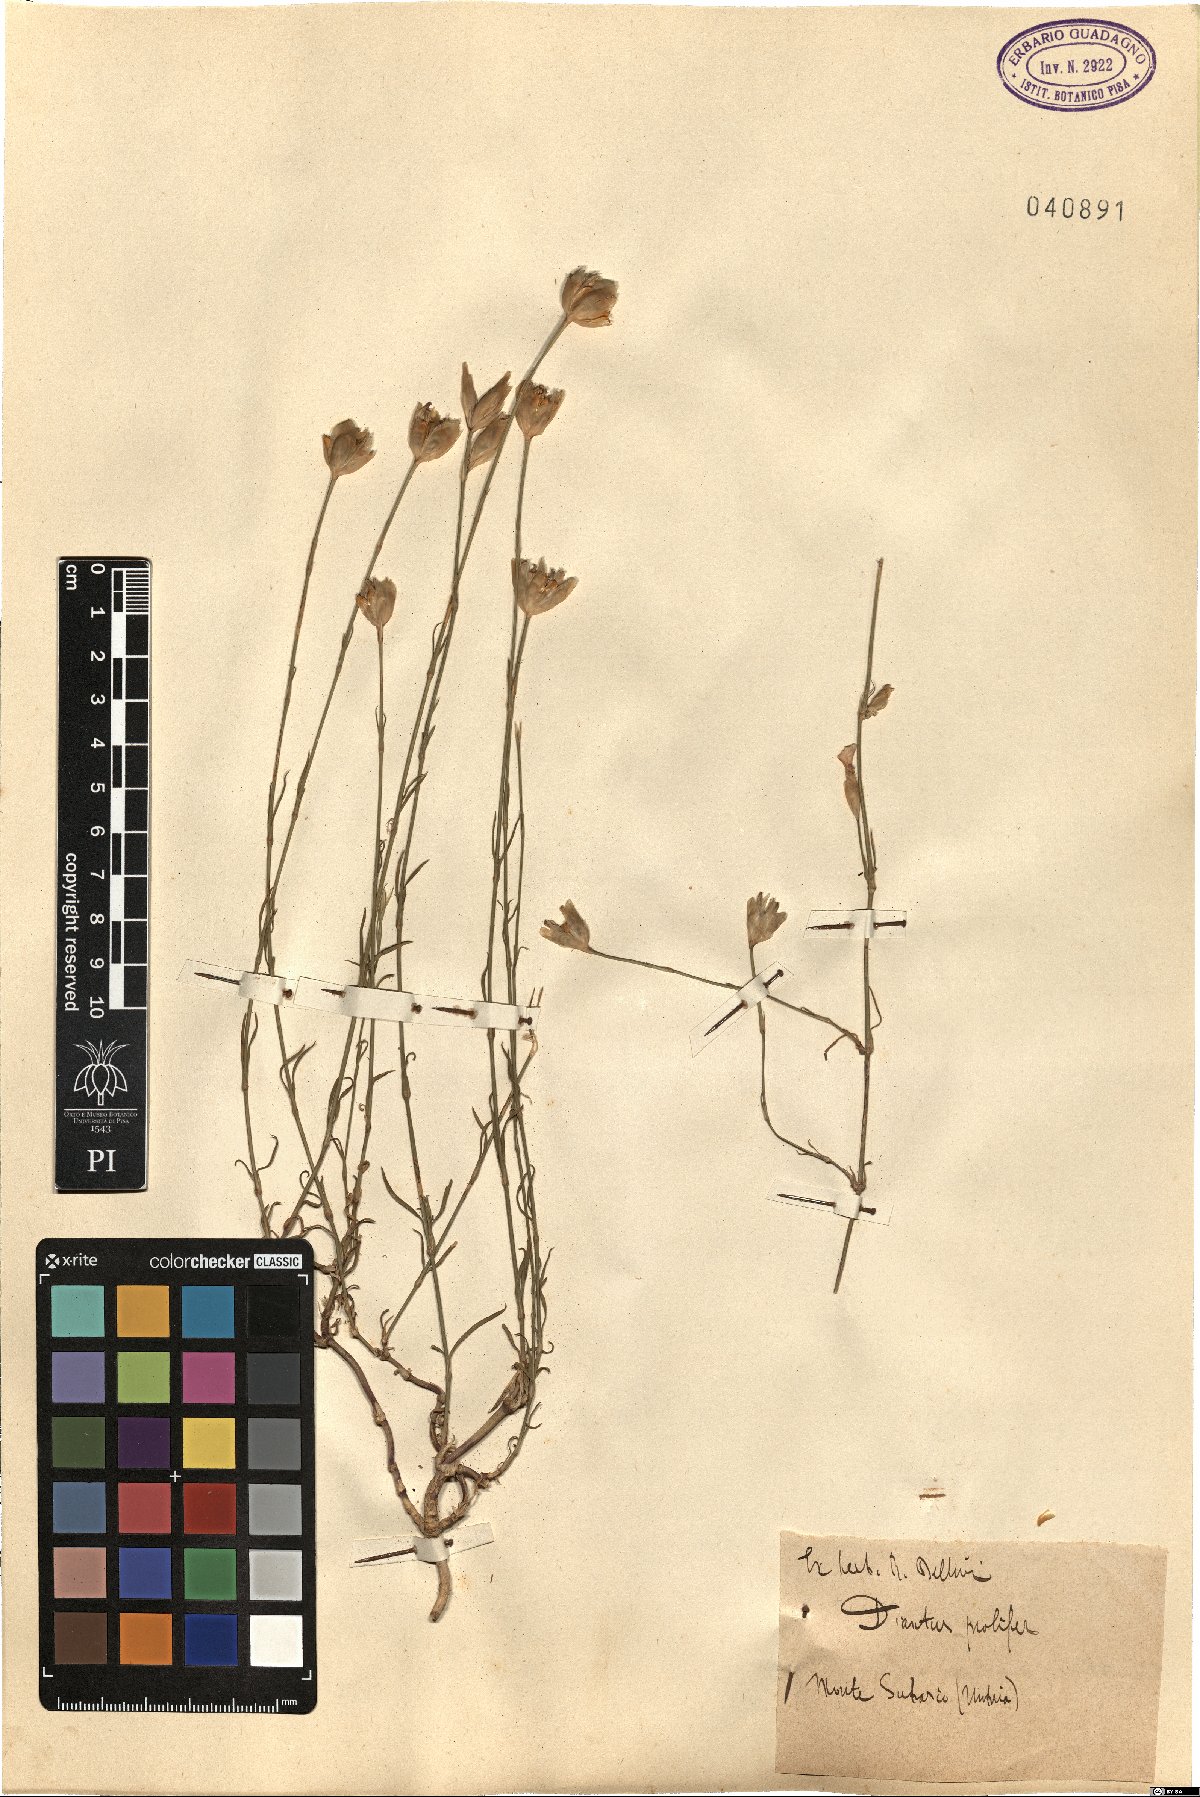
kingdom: Plantae
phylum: Tracheophyta
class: Magnoliopsida
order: Caryophyllales
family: Caryophyllaceae
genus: Petrorhagia
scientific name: Petrorhagia prolifera
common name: Proliferous pink
